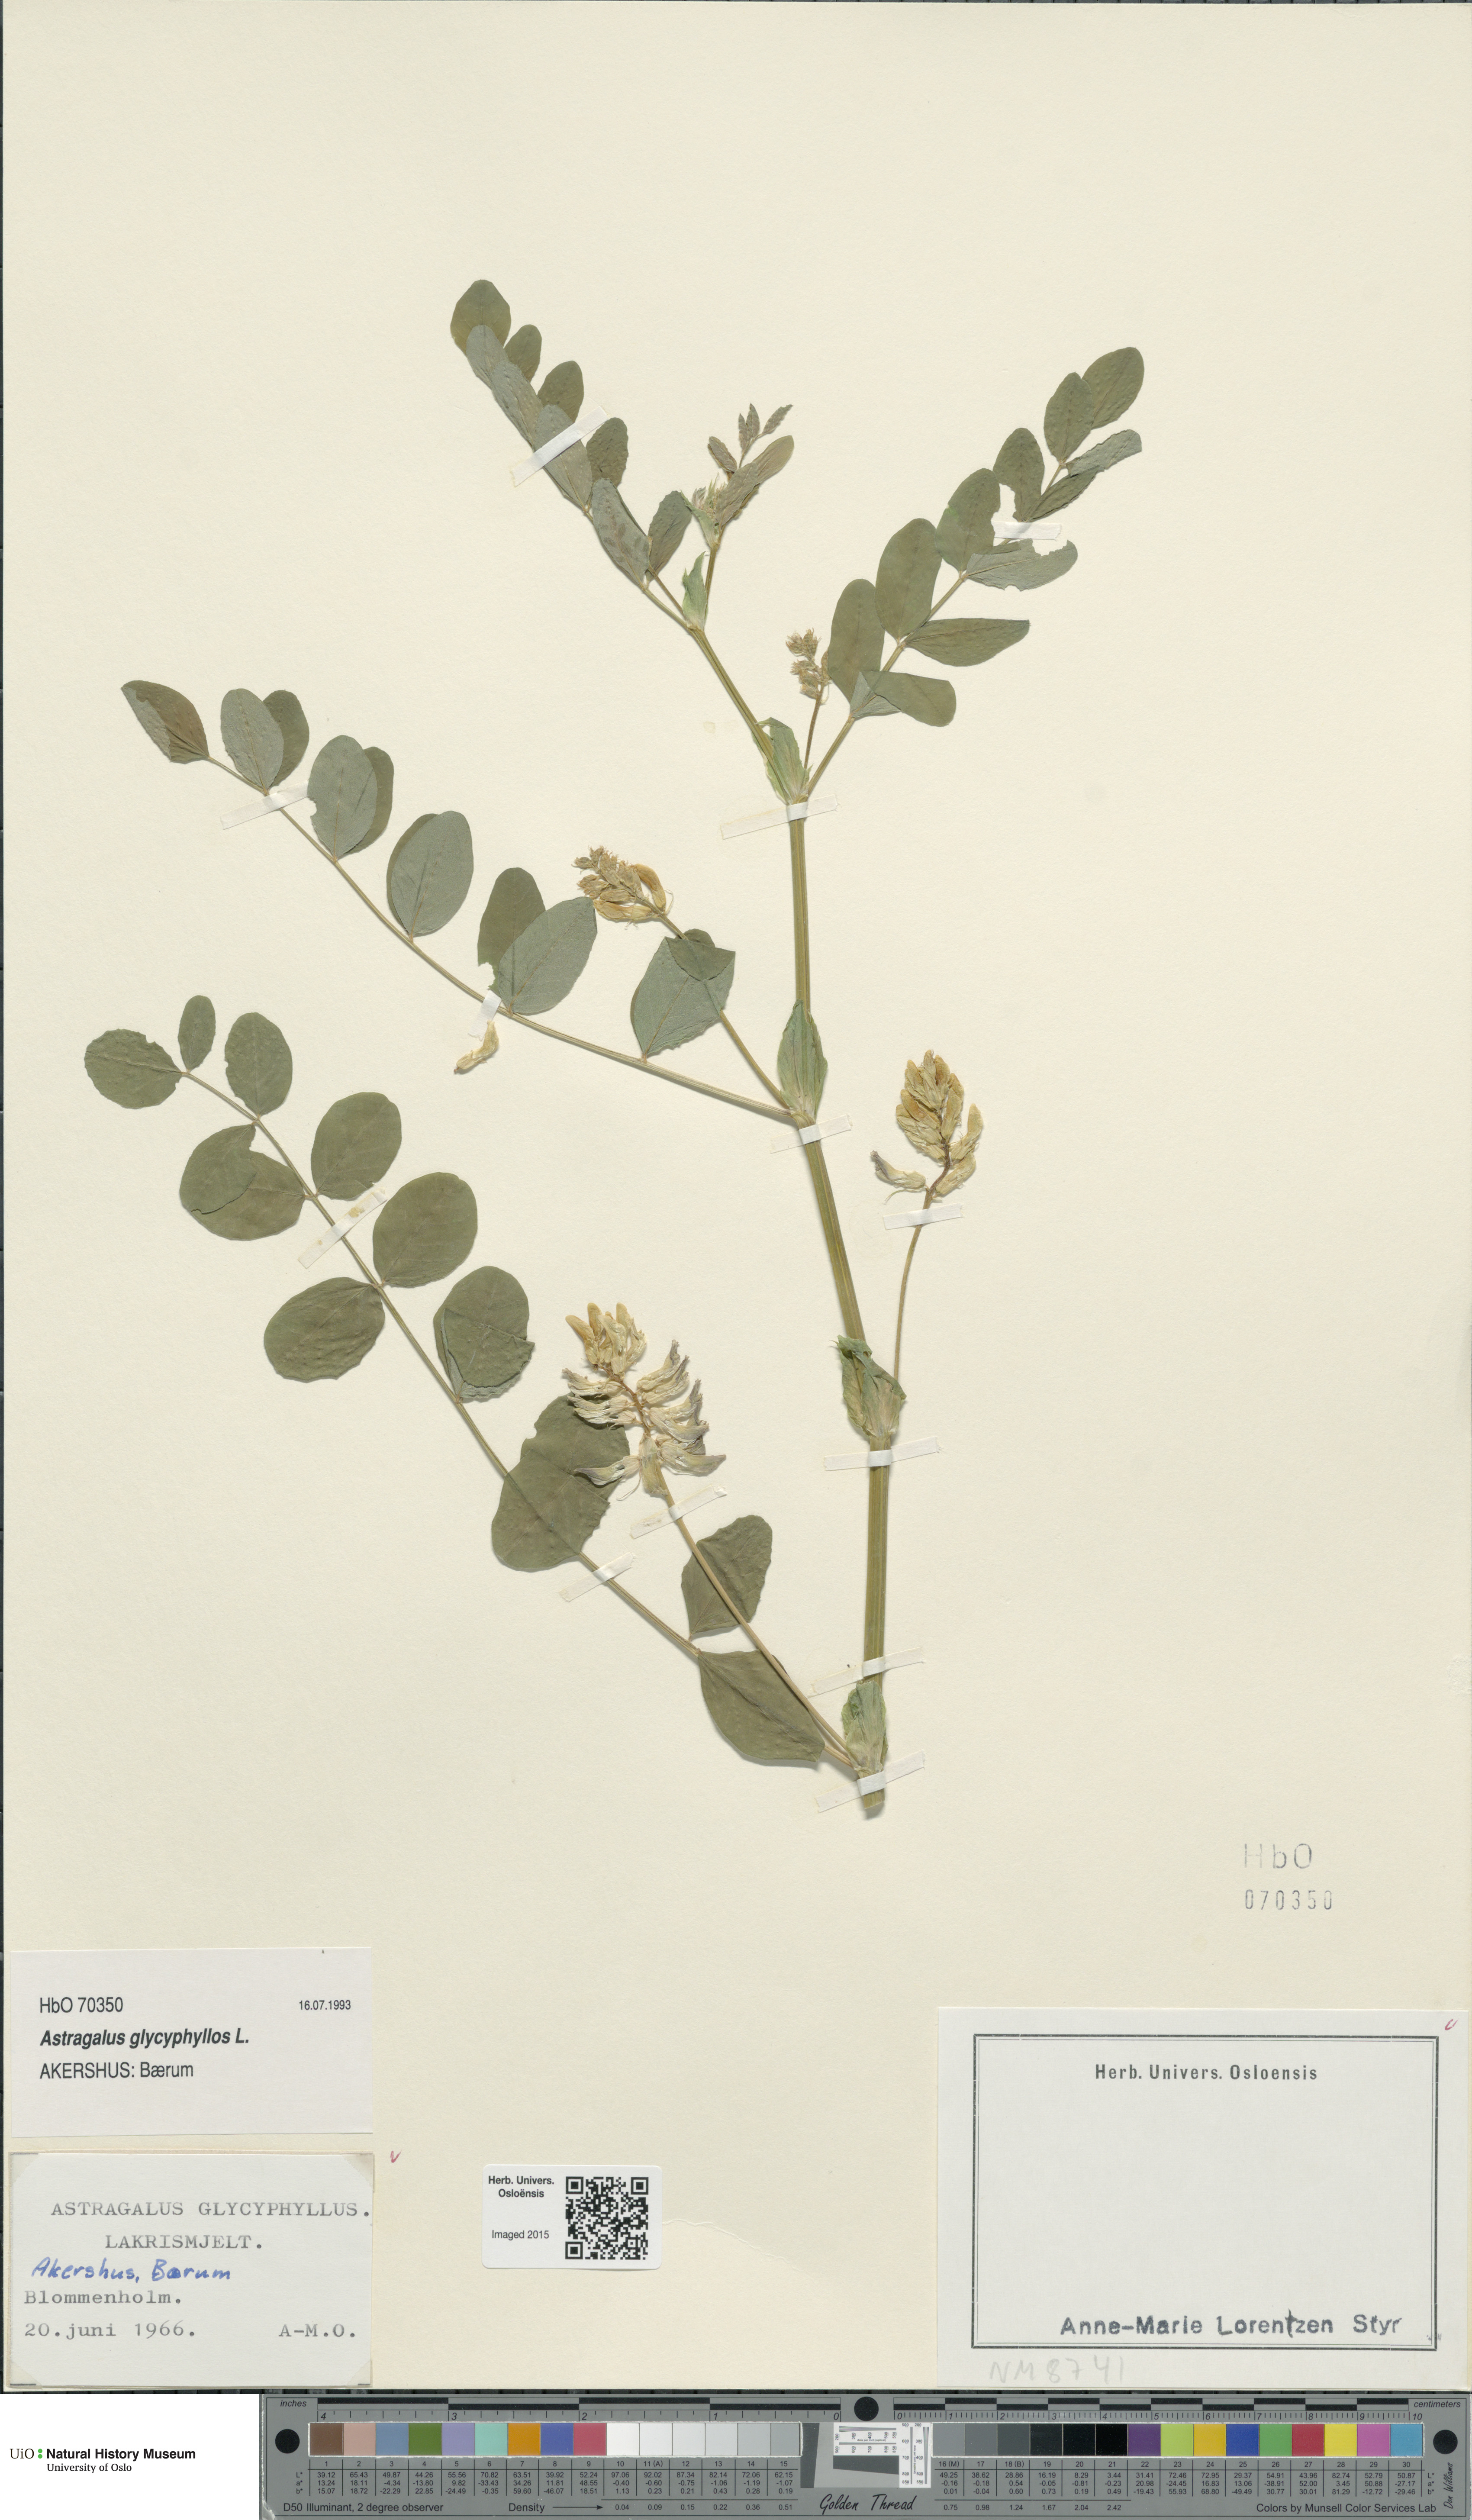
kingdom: Plantae
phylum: Tracheophyta
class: Magnoliopsida
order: Fabales
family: Fabaceae
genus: Astragalus
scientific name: Astragalus glycyphyllos
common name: Wild liquorice
